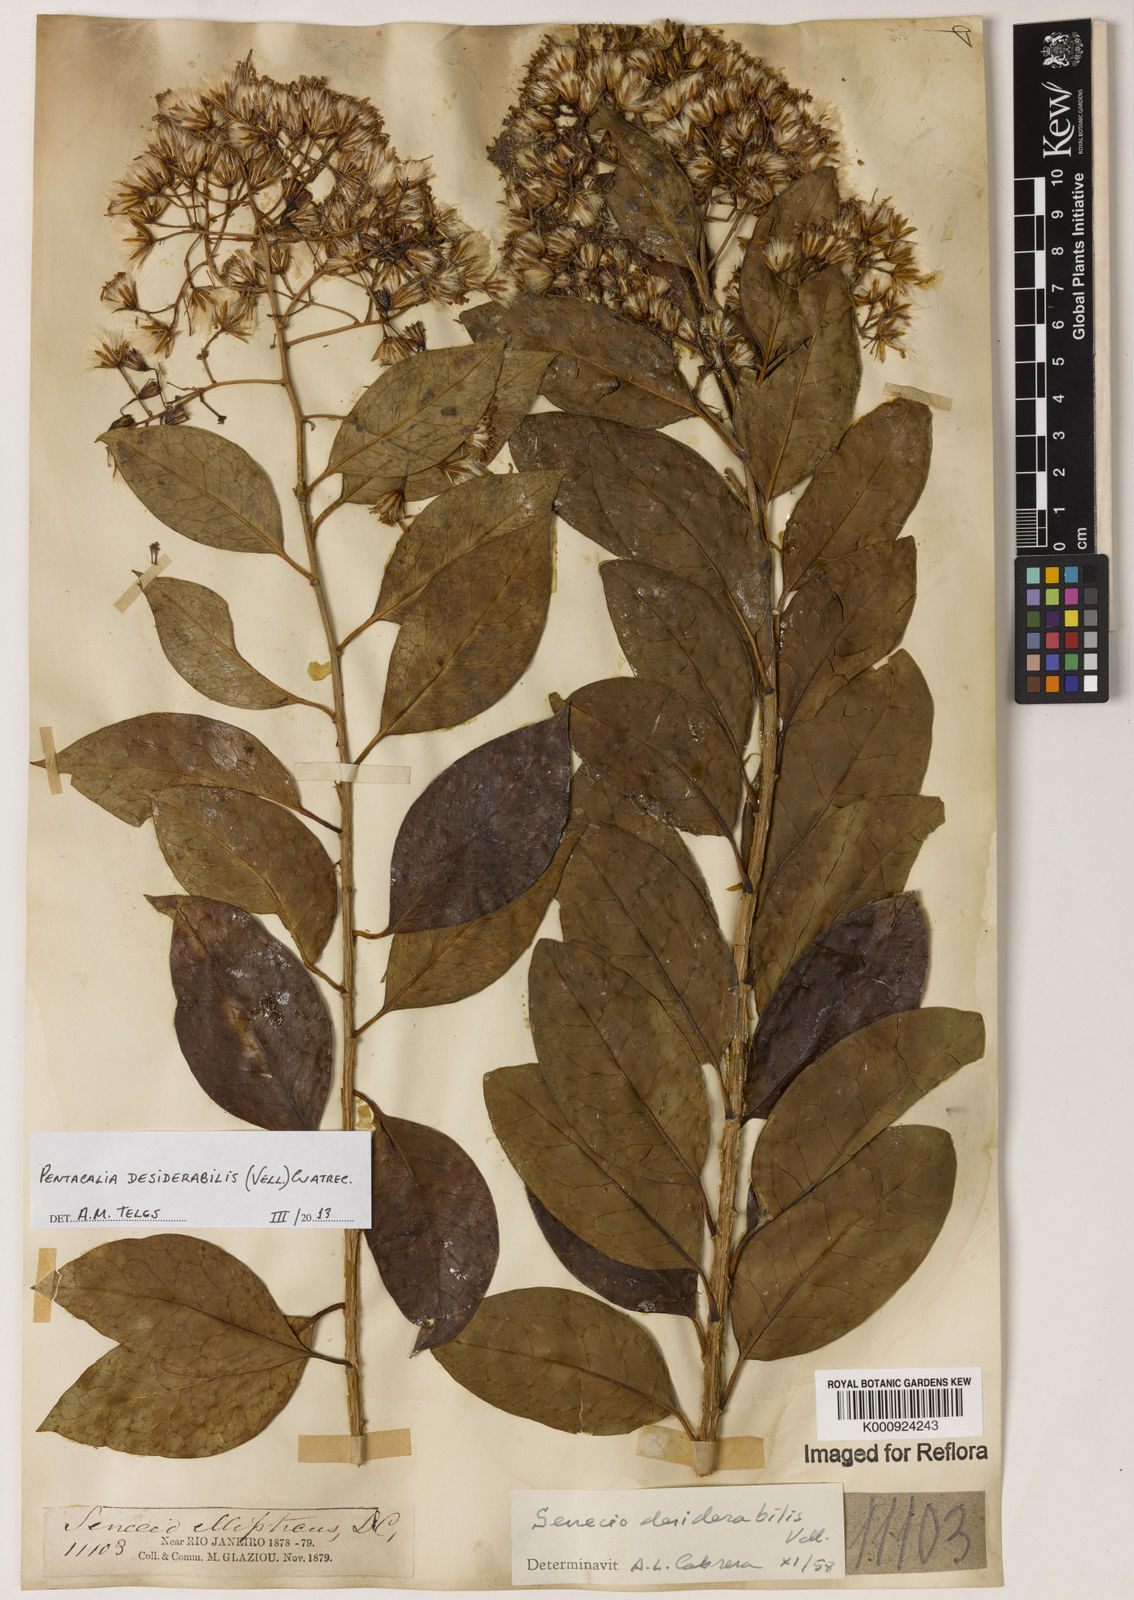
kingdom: Plantae
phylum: Tracheophyta
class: Magnoliopsida
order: Asterales
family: Asteraceae
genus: Pentacalia
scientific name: Pentacalia desiderabilis
